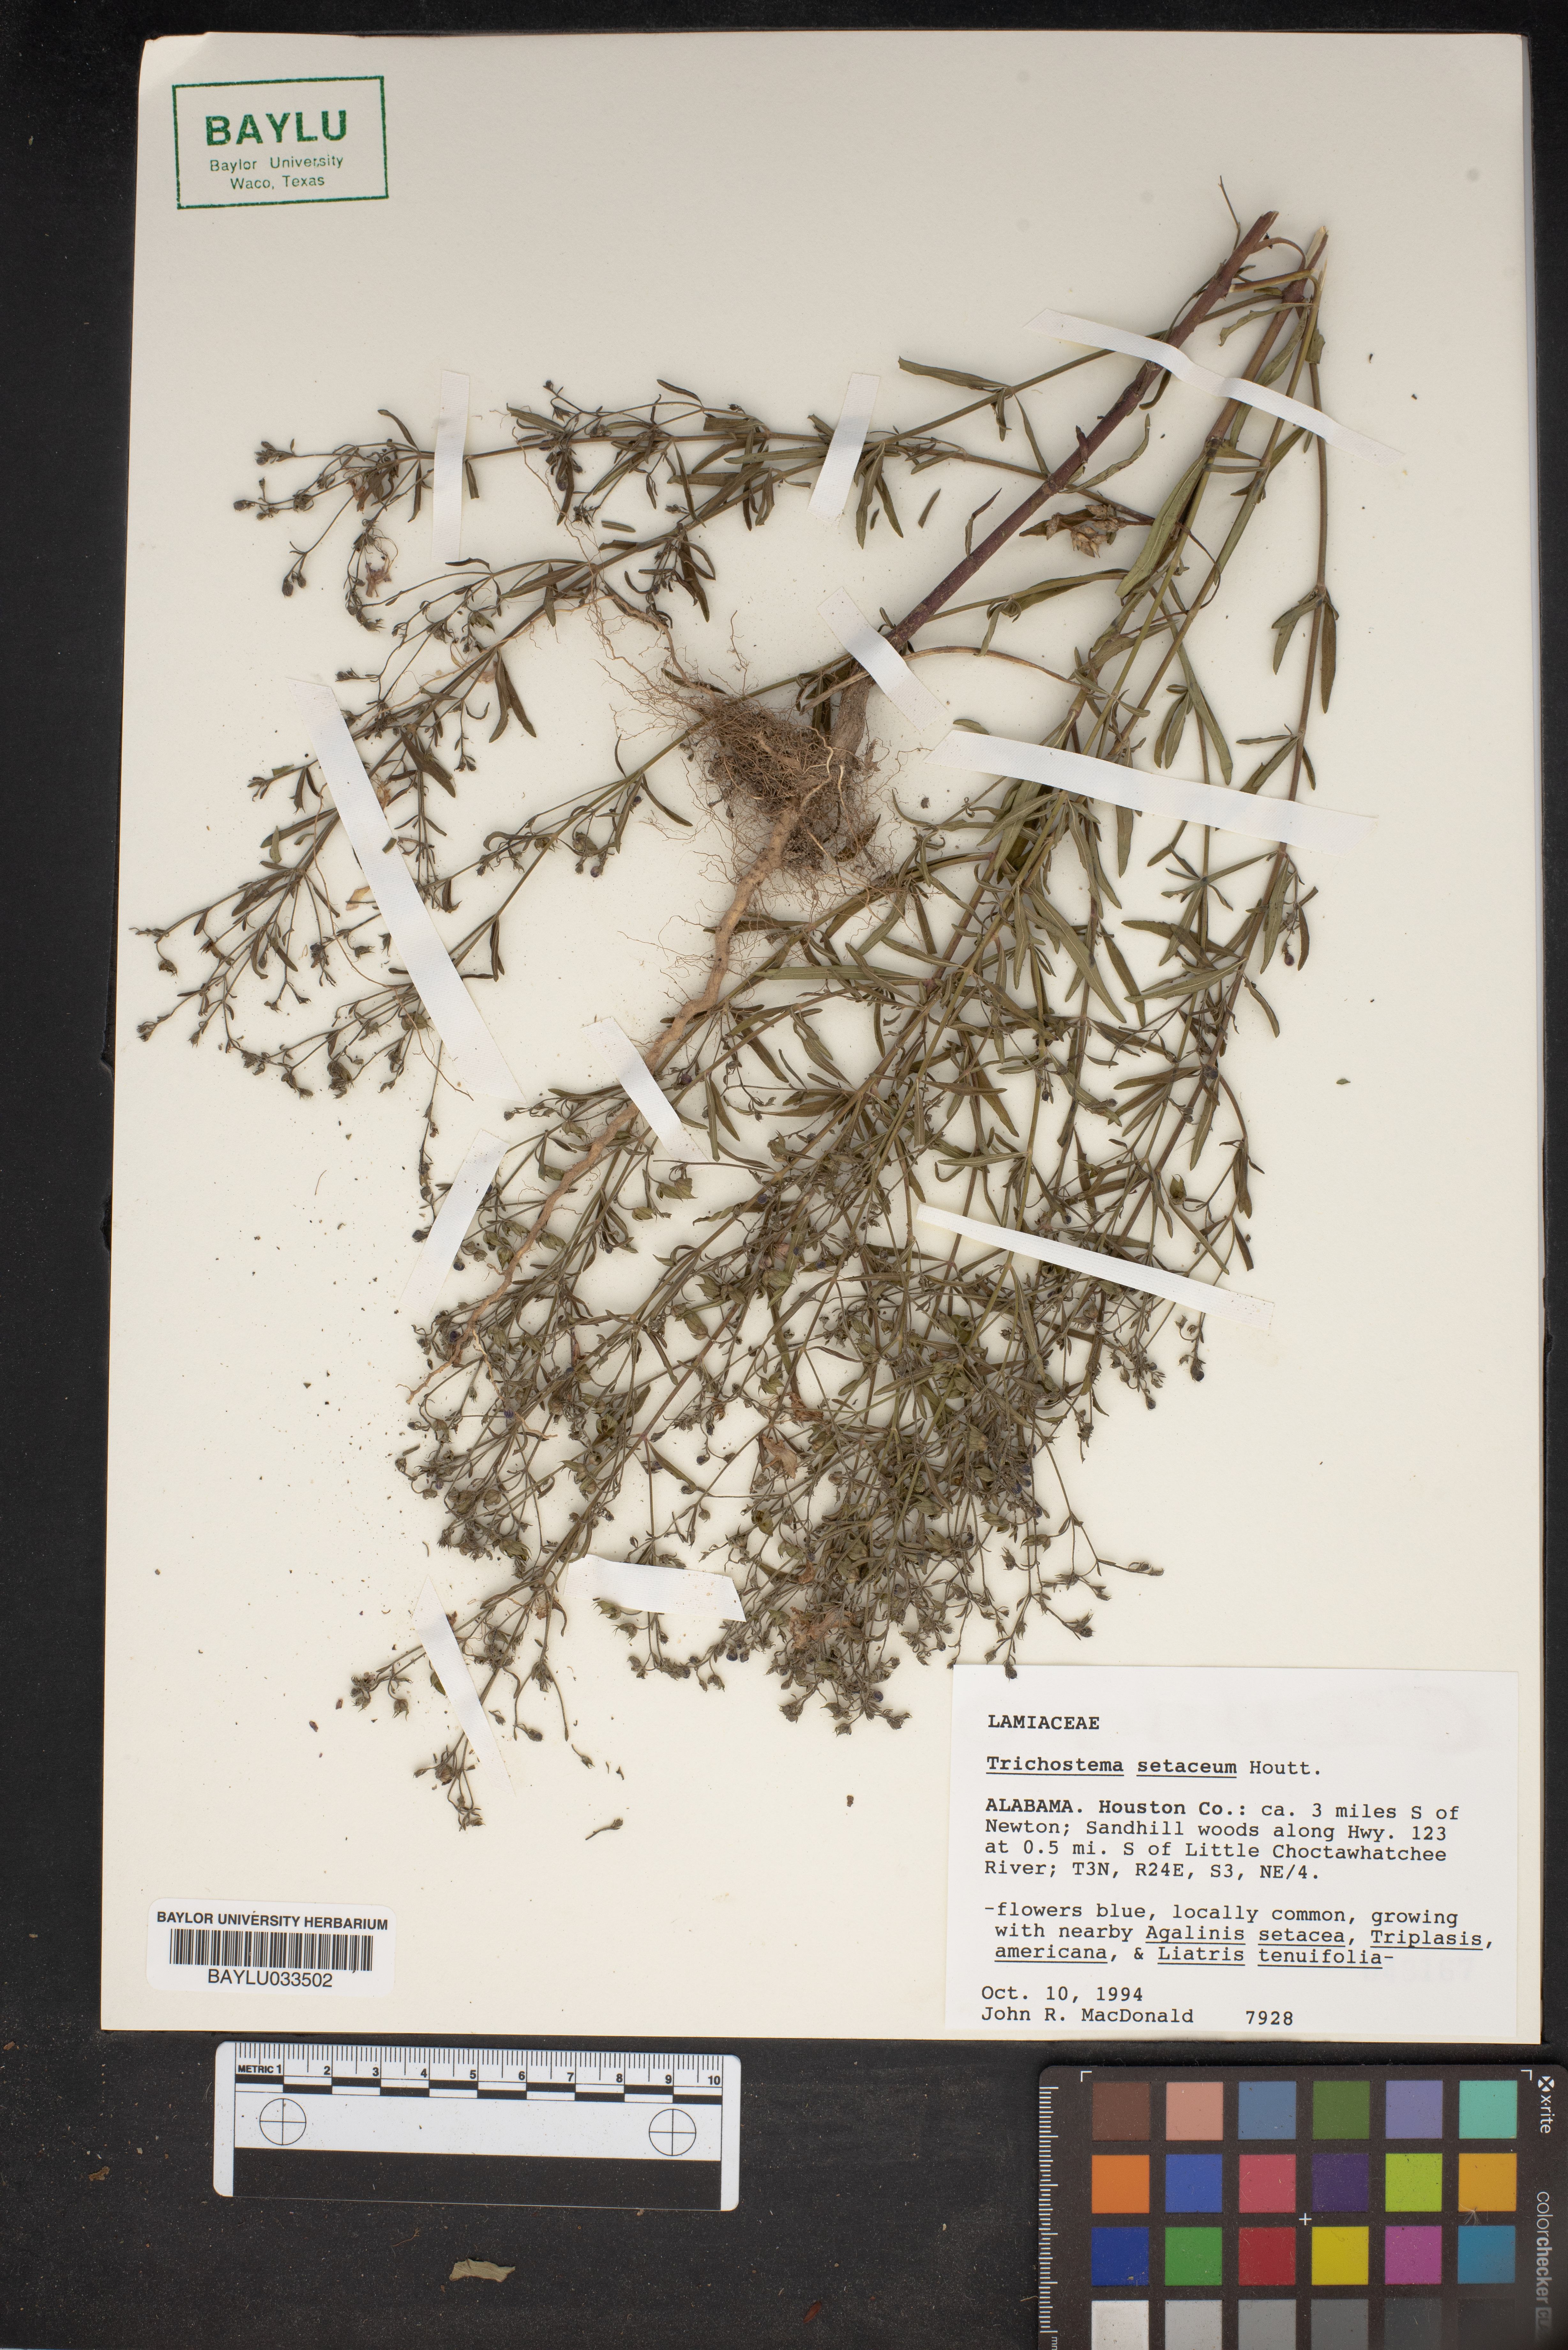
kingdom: Plantae
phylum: Tracheophyta
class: Magnoliopsida
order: Lamiales
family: Lamiaceae
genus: Trichostema
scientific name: Trichostema setaceum
